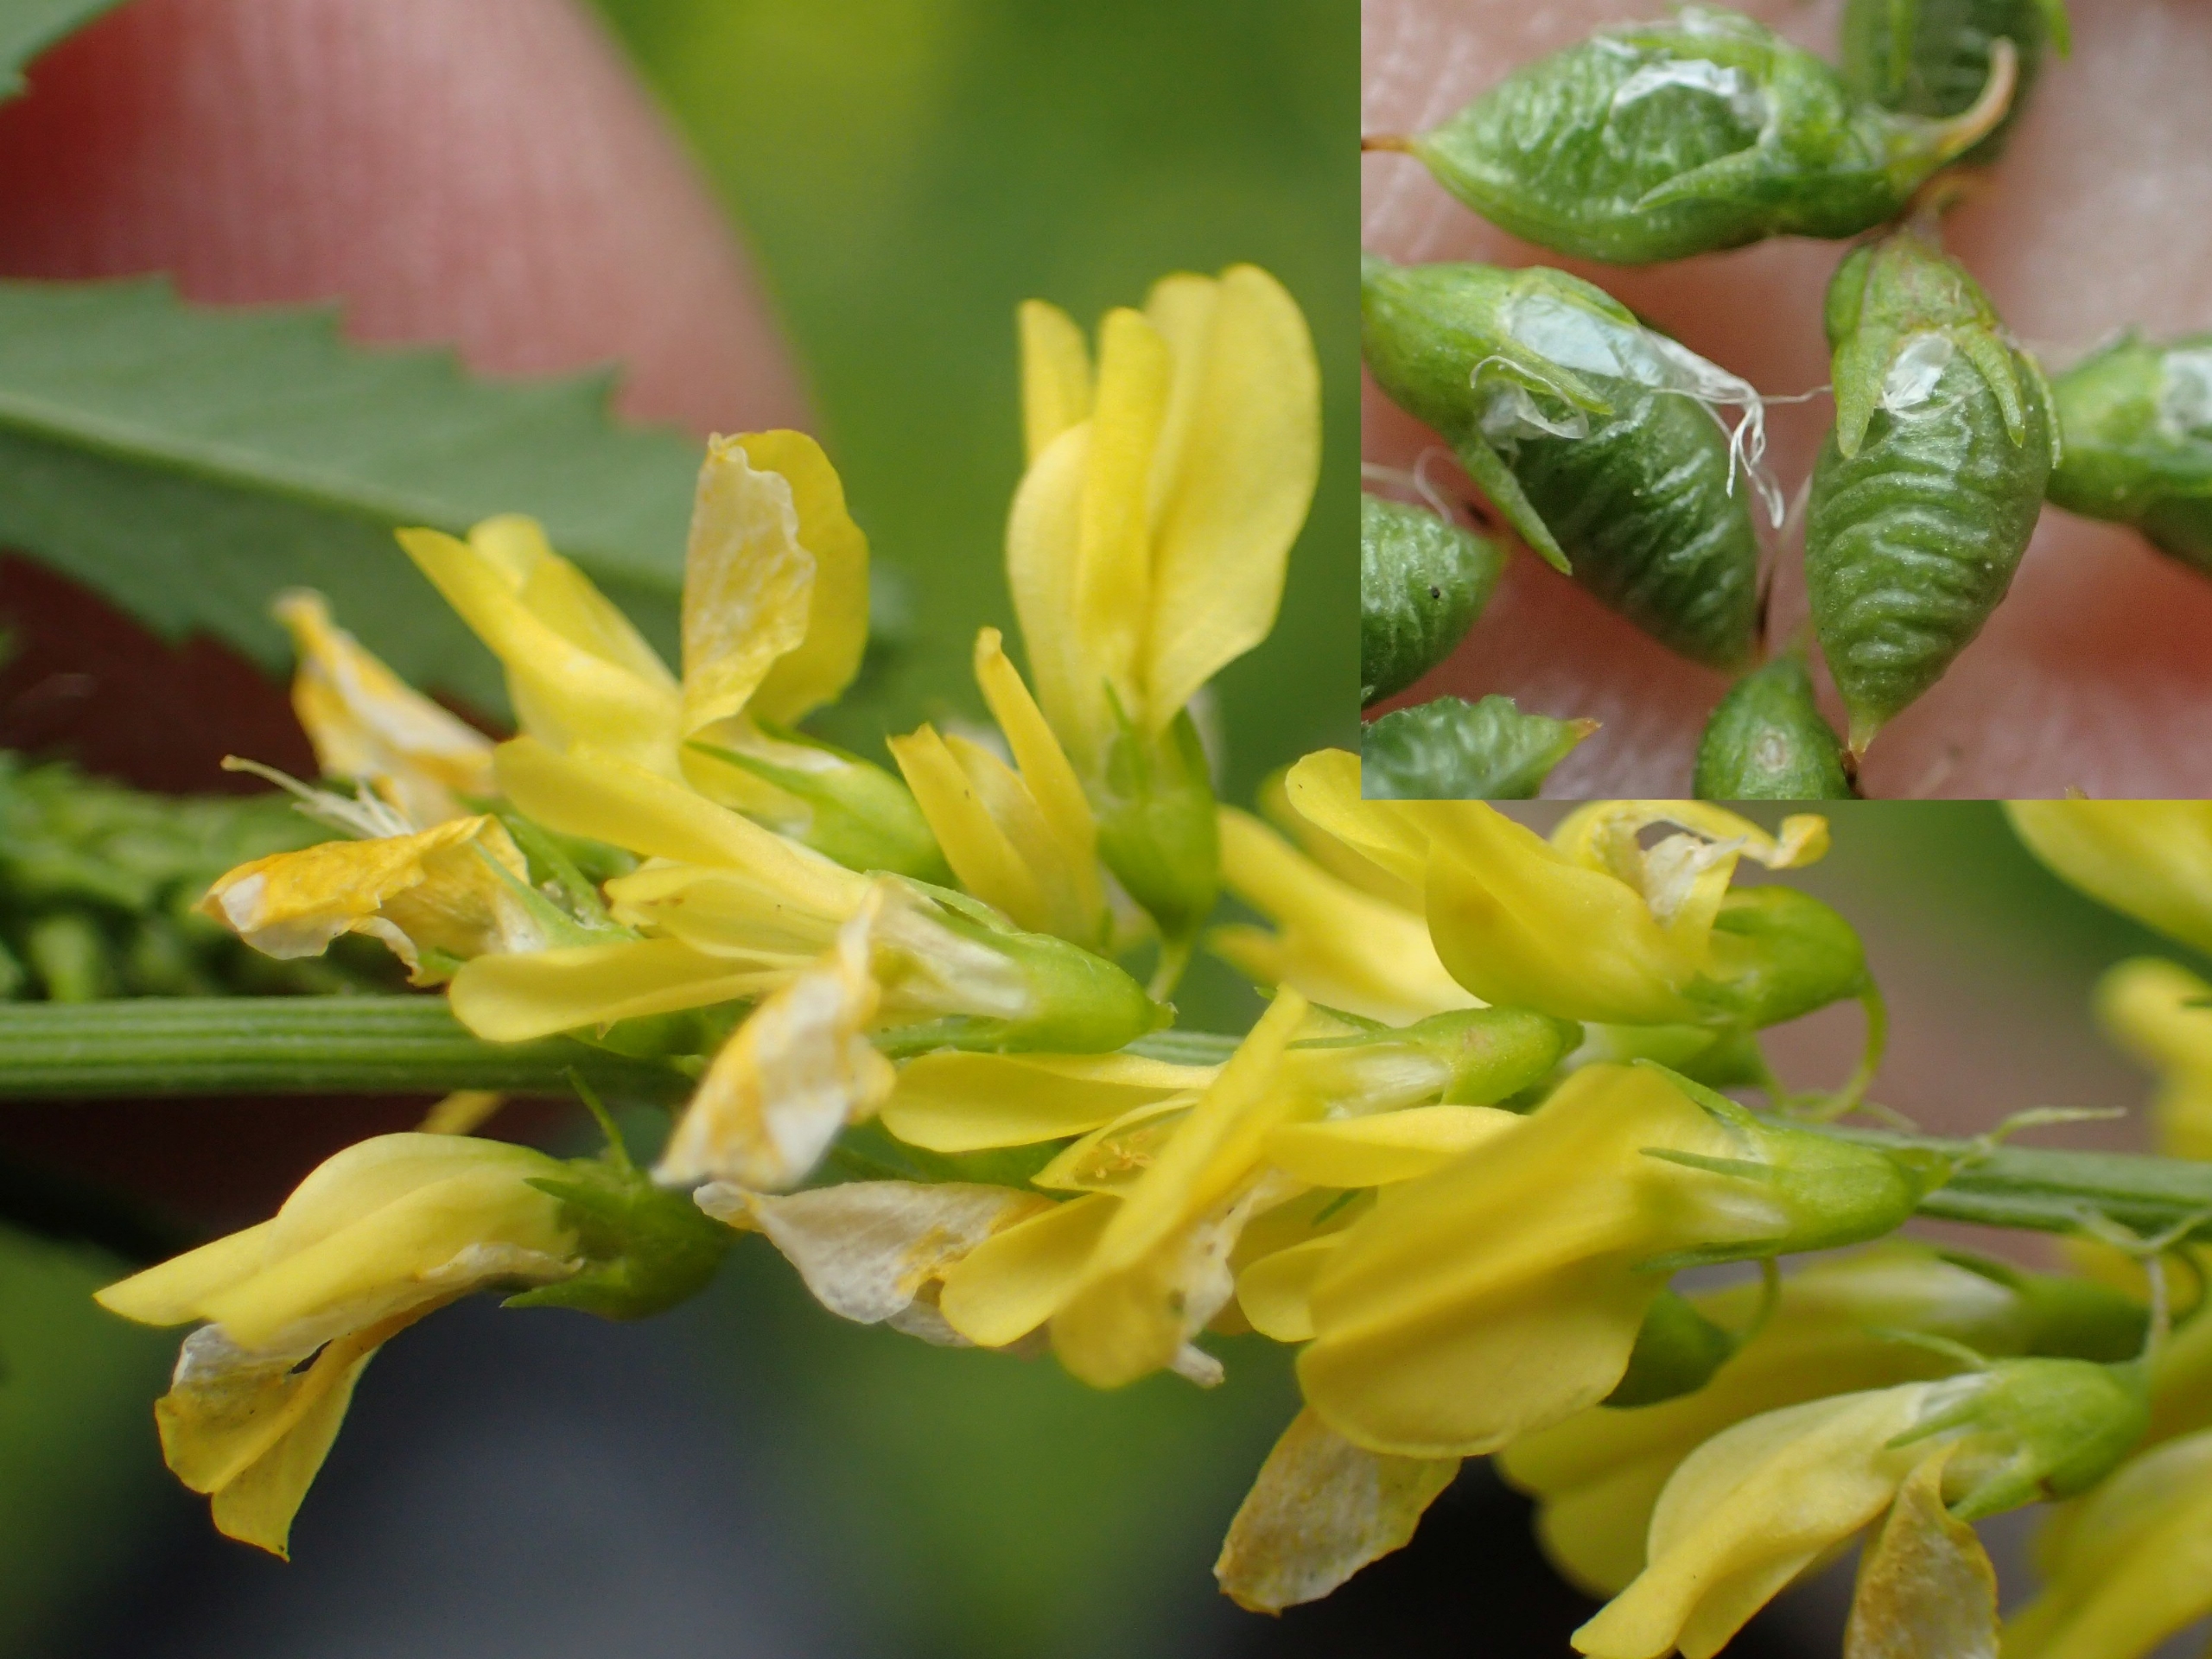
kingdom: Plantae
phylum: Tracheophyta
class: Magnoliopsida
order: Fabales
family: Fabaceae
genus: Melilotus
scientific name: Melilotus officinalis
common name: Mark-stenkløver
